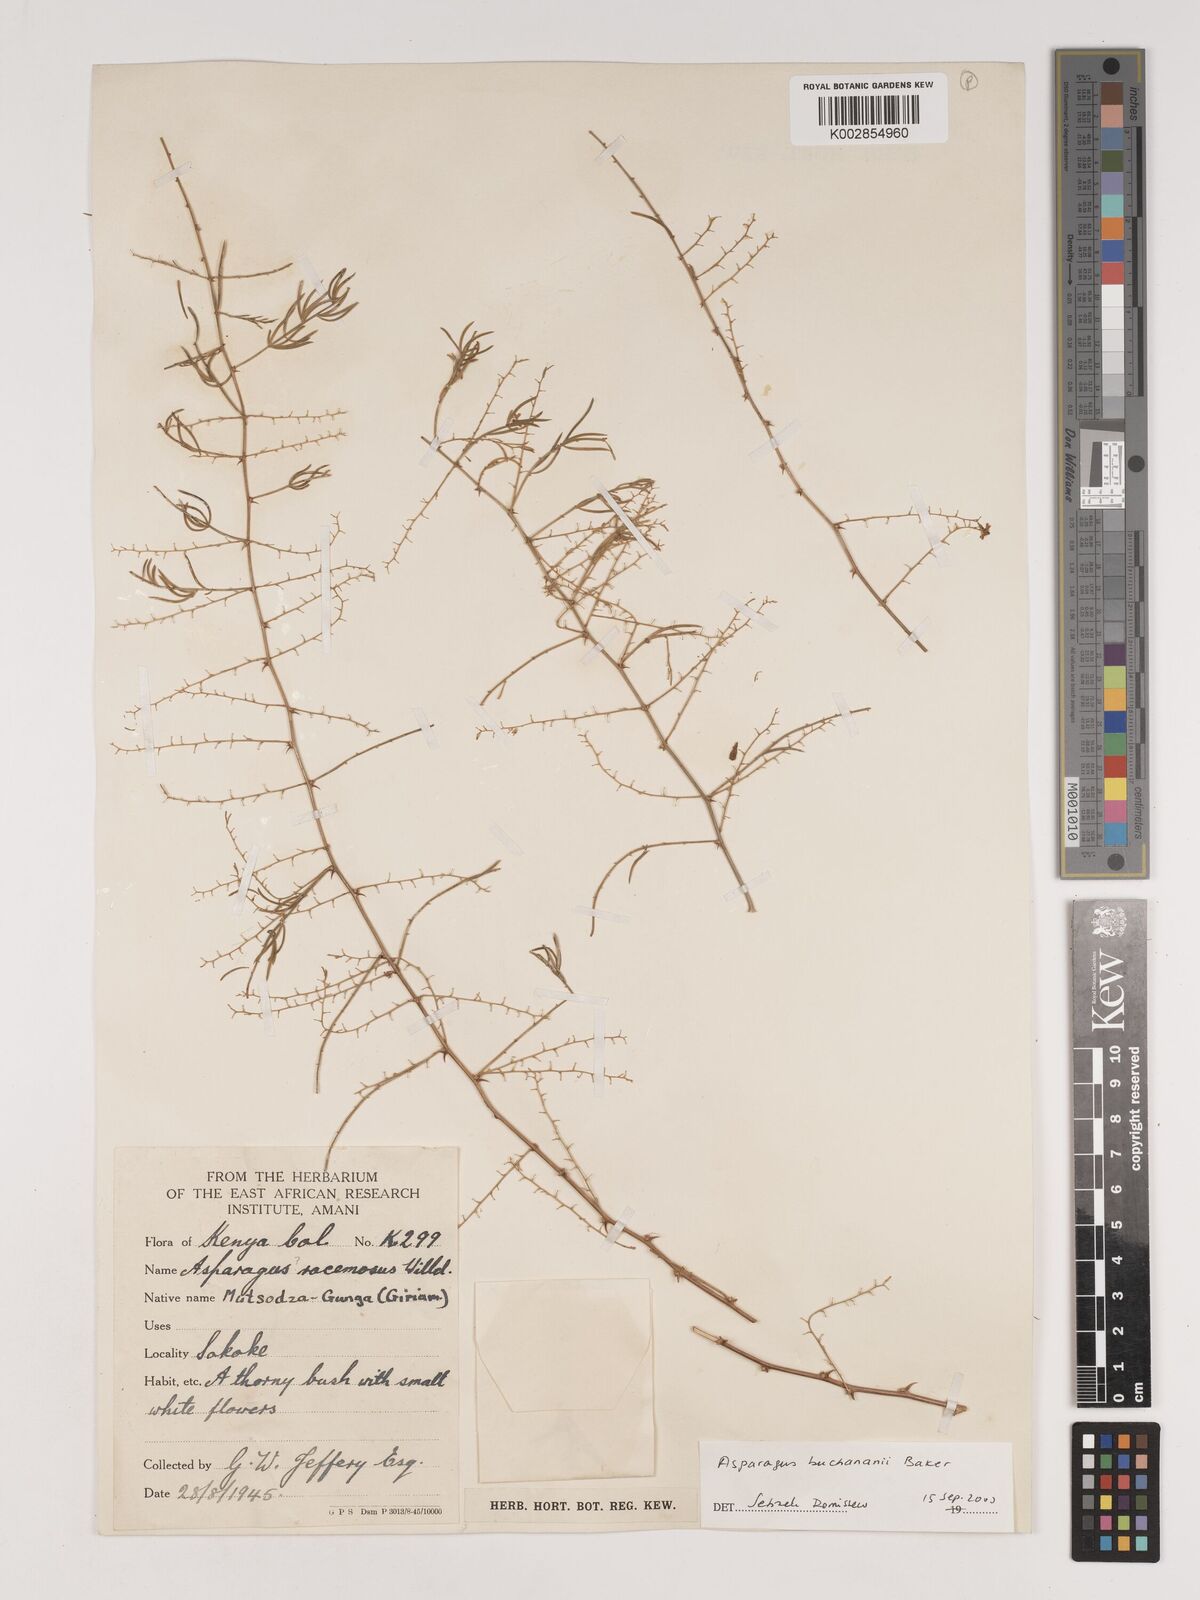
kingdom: Plantae
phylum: Tracheophyta
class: Liliopsida
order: Asparagales
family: Asparagaceae
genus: Asparagus
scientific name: Asparagus buchananii
